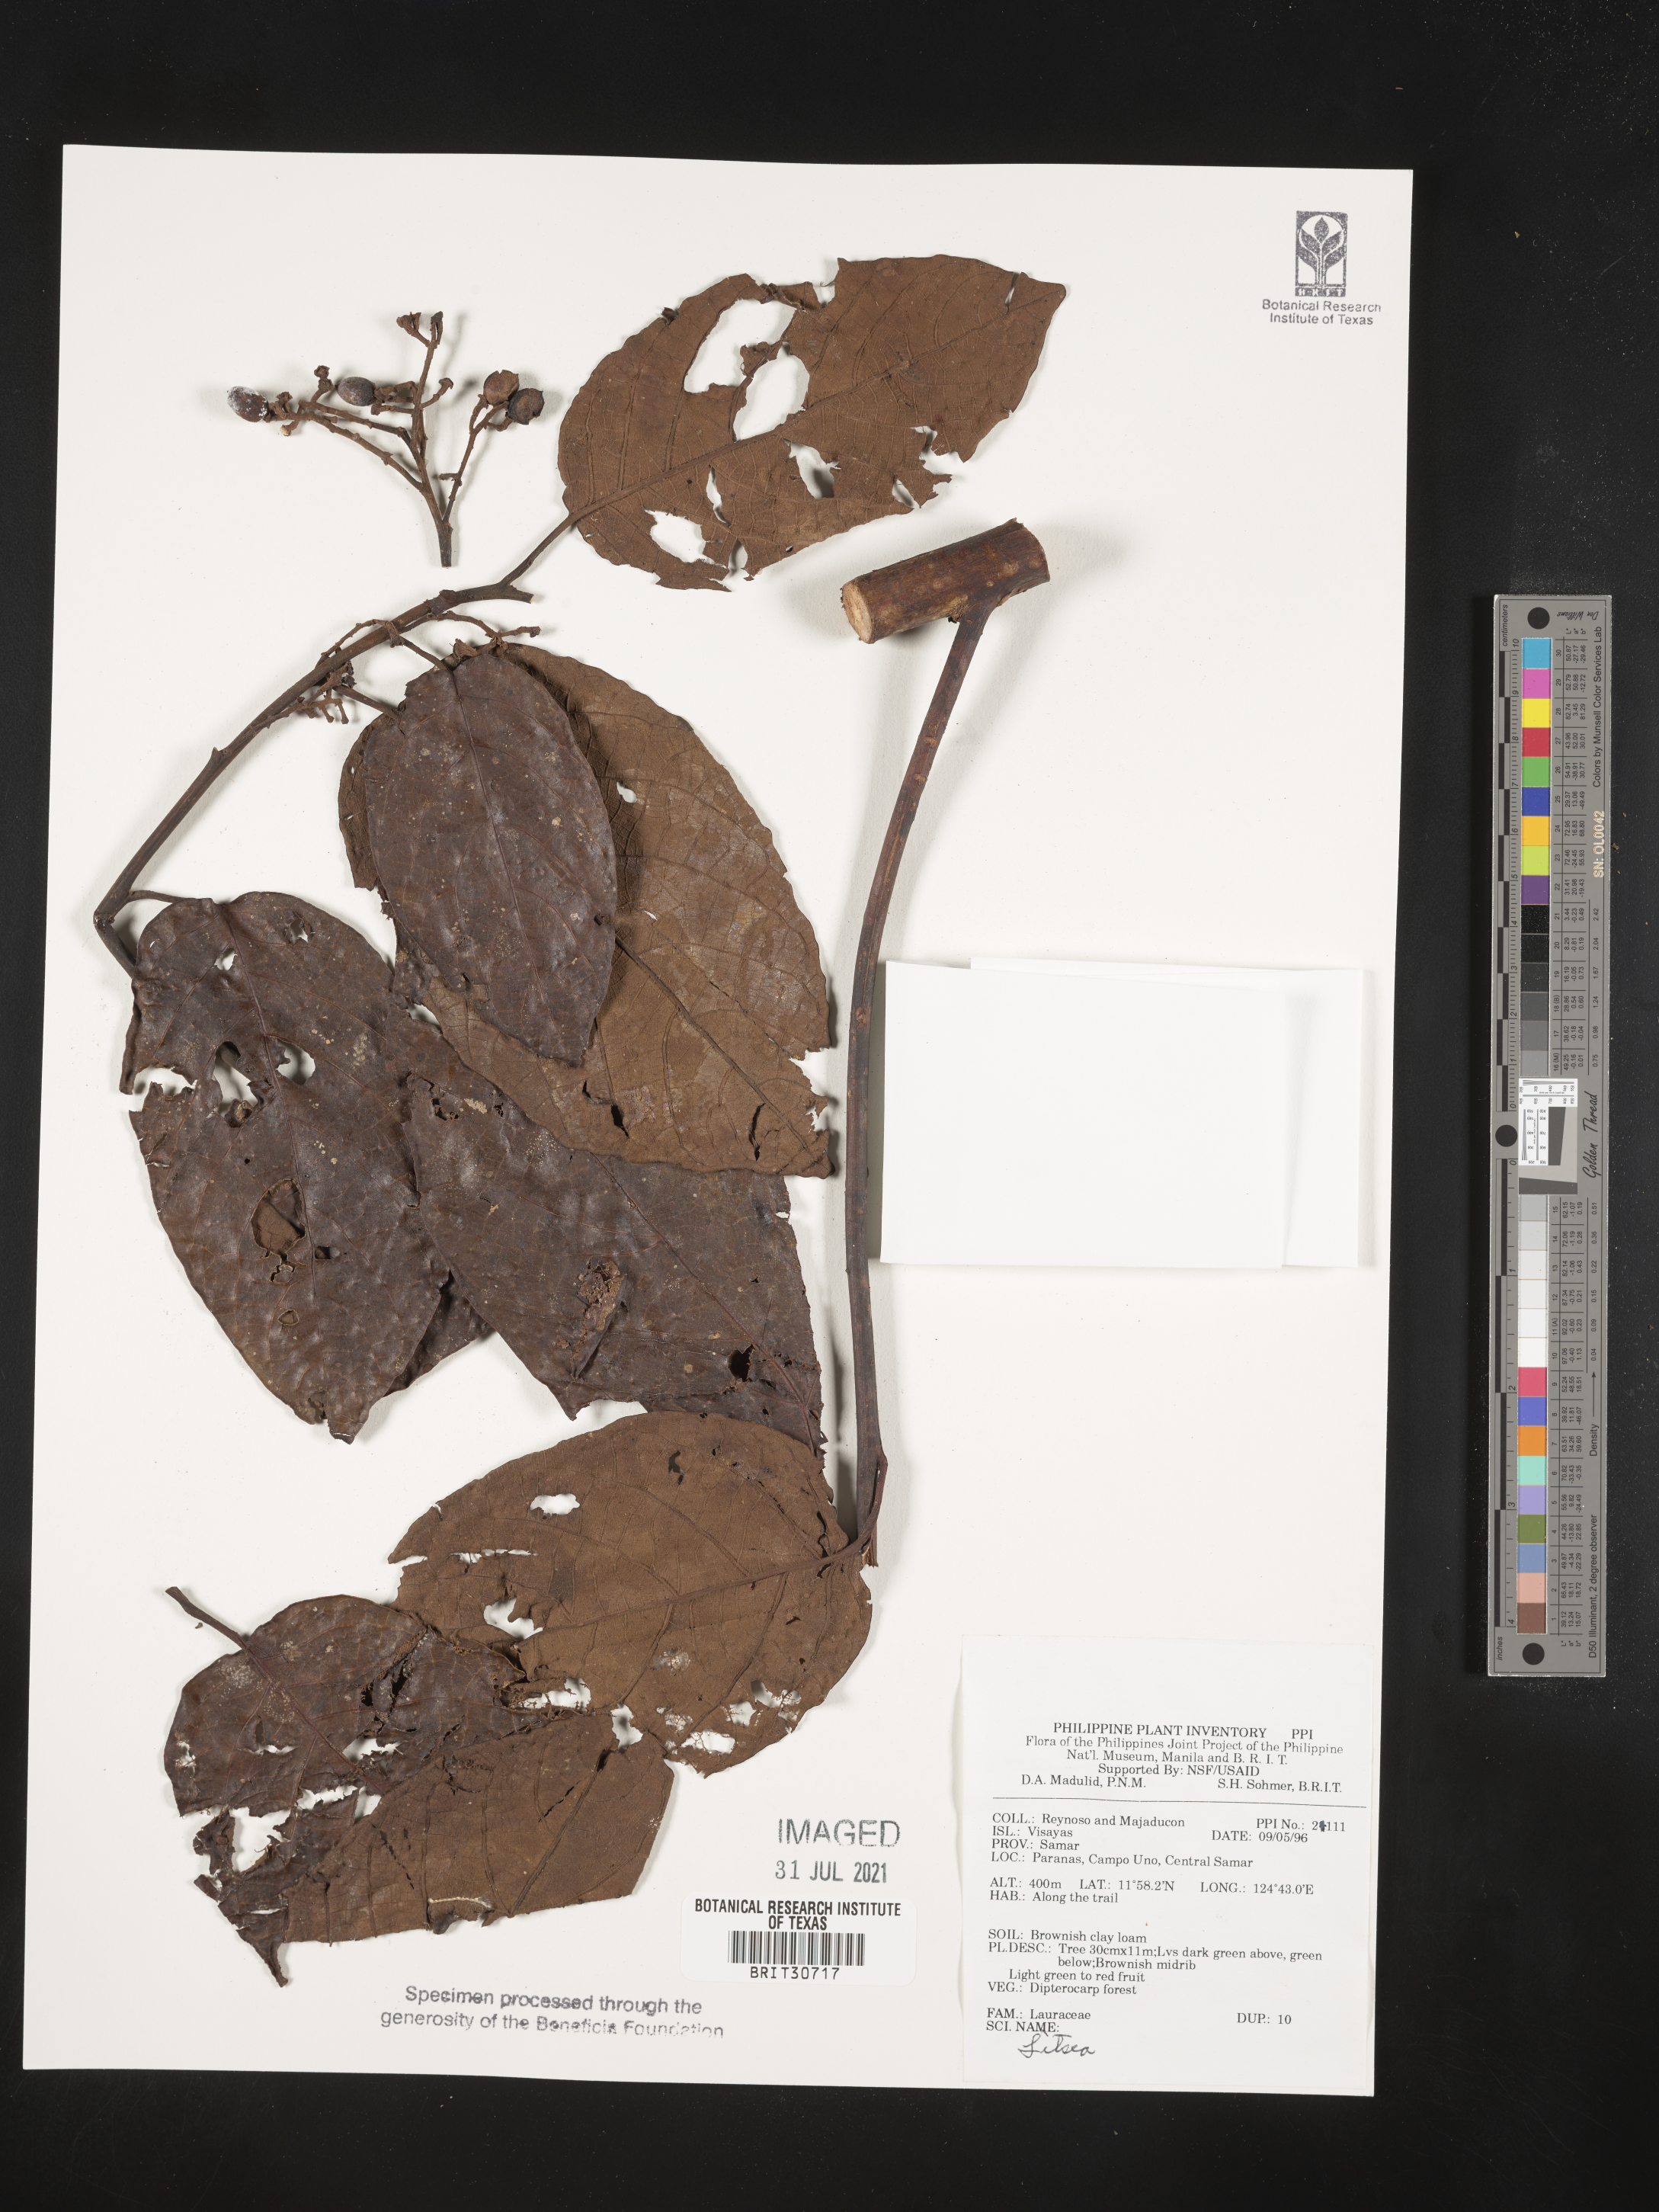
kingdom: Plantae
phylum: Tracheophyta
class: Magnoliopsida
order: Laurales
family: Lauraceae
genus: Litsea
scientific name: Litsea
